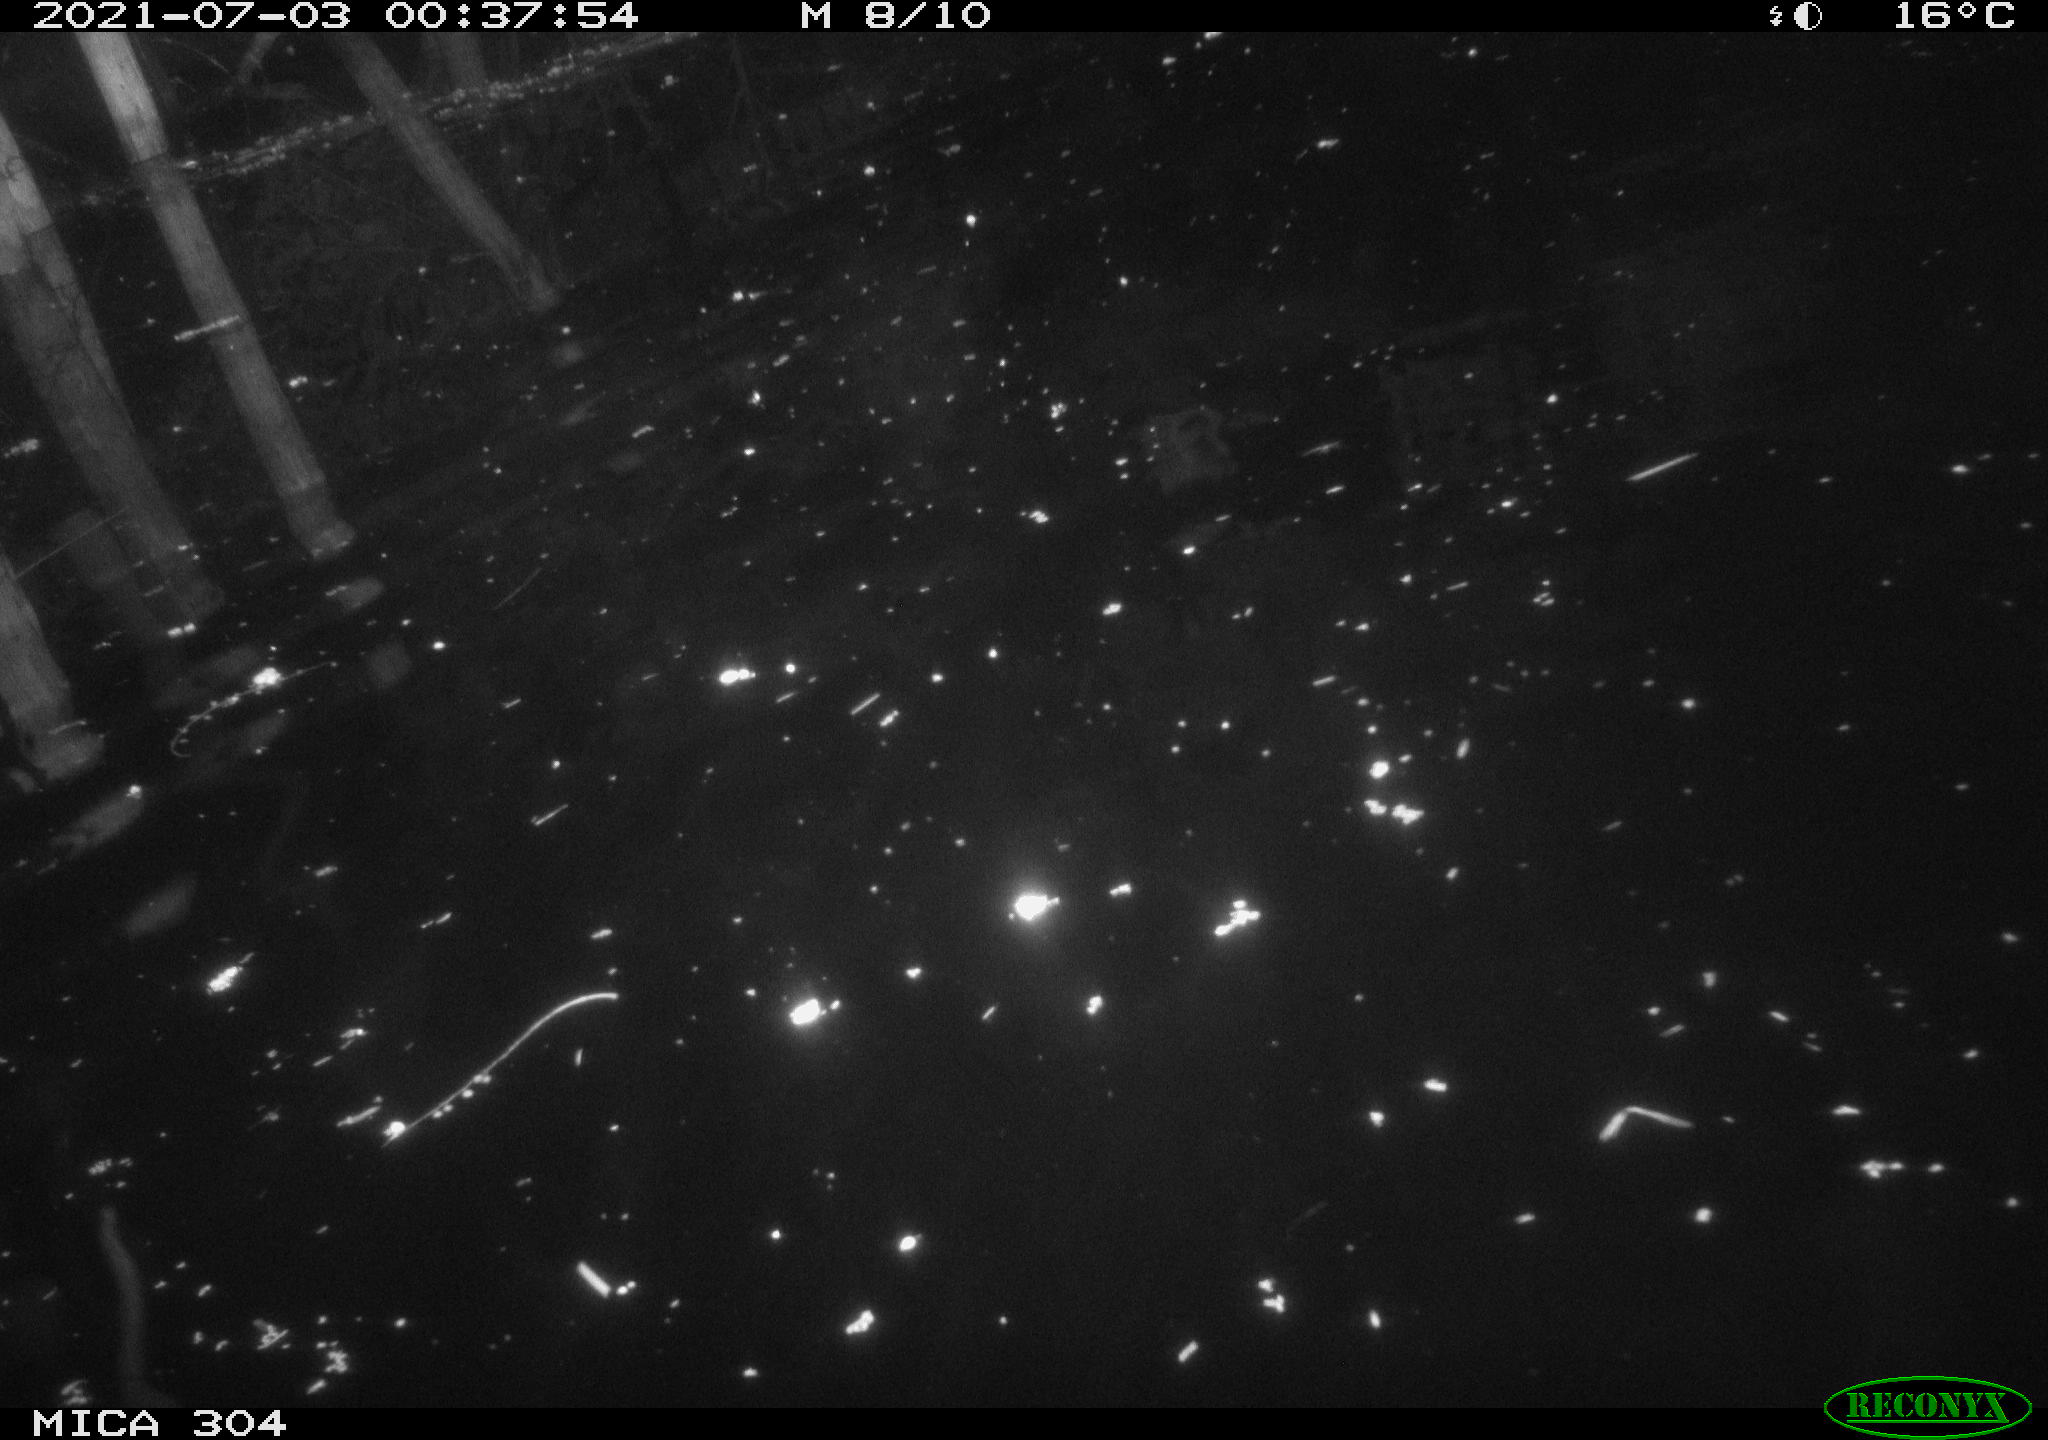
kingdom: Animalia
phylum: Chordata
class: Mammalia
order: Rodentia
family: Cricetidae
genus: Ondatra
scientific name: Ondatra zibethicus
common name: Muskrat
